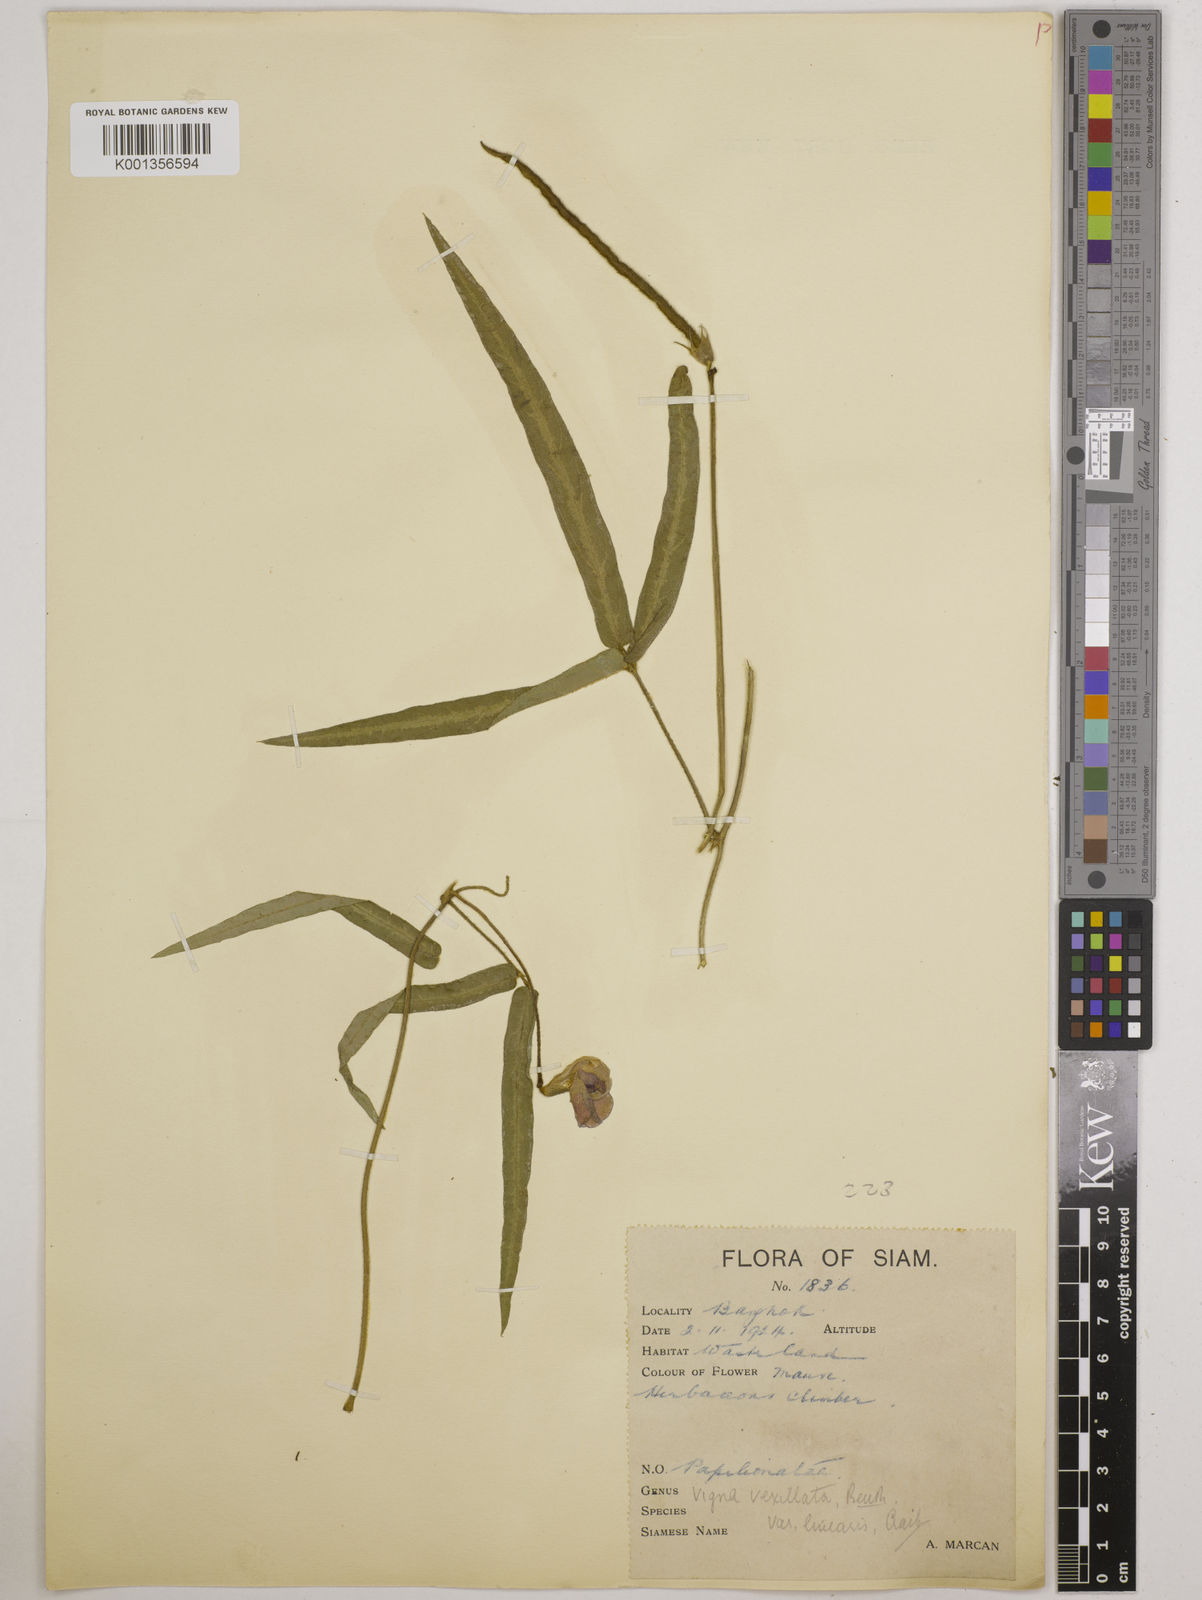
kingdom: Plantae
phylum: Tracheophyta
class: Magnoliopsida
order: Fabales
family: Fabaceae
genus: Vigna
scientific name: Vigna vexillata
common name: Zombi pea
